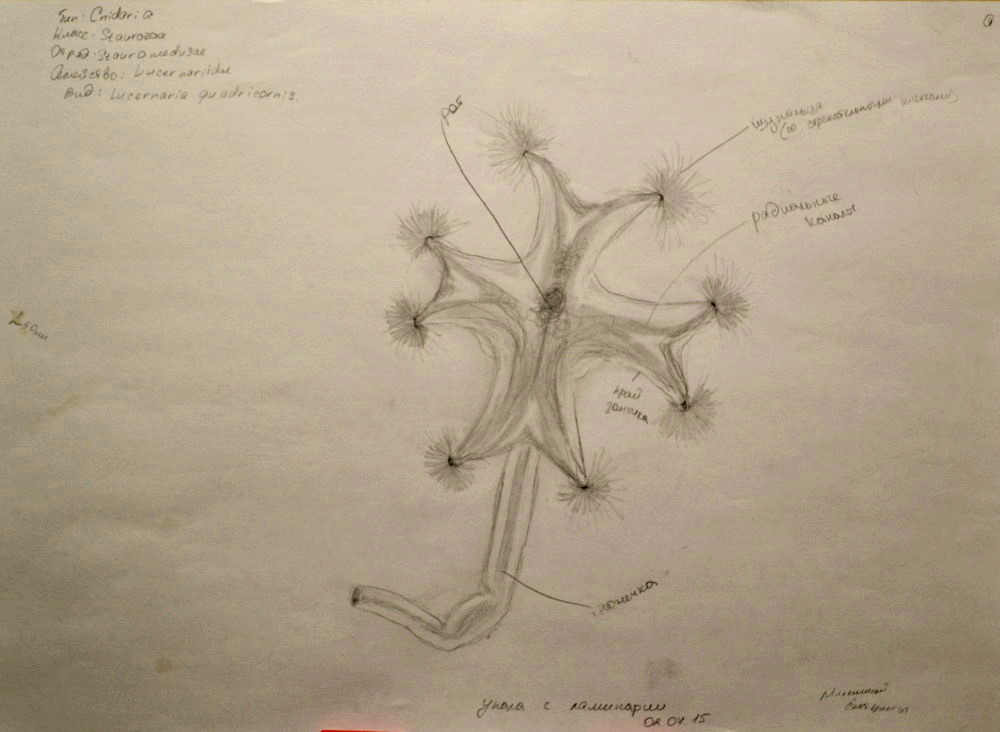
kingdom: Animalia
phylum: Cnidaria
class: Staurozoa
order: Stauromedusae
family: Lucernariidae
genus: Lucernaria
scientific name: Lucernaria quadricornis
